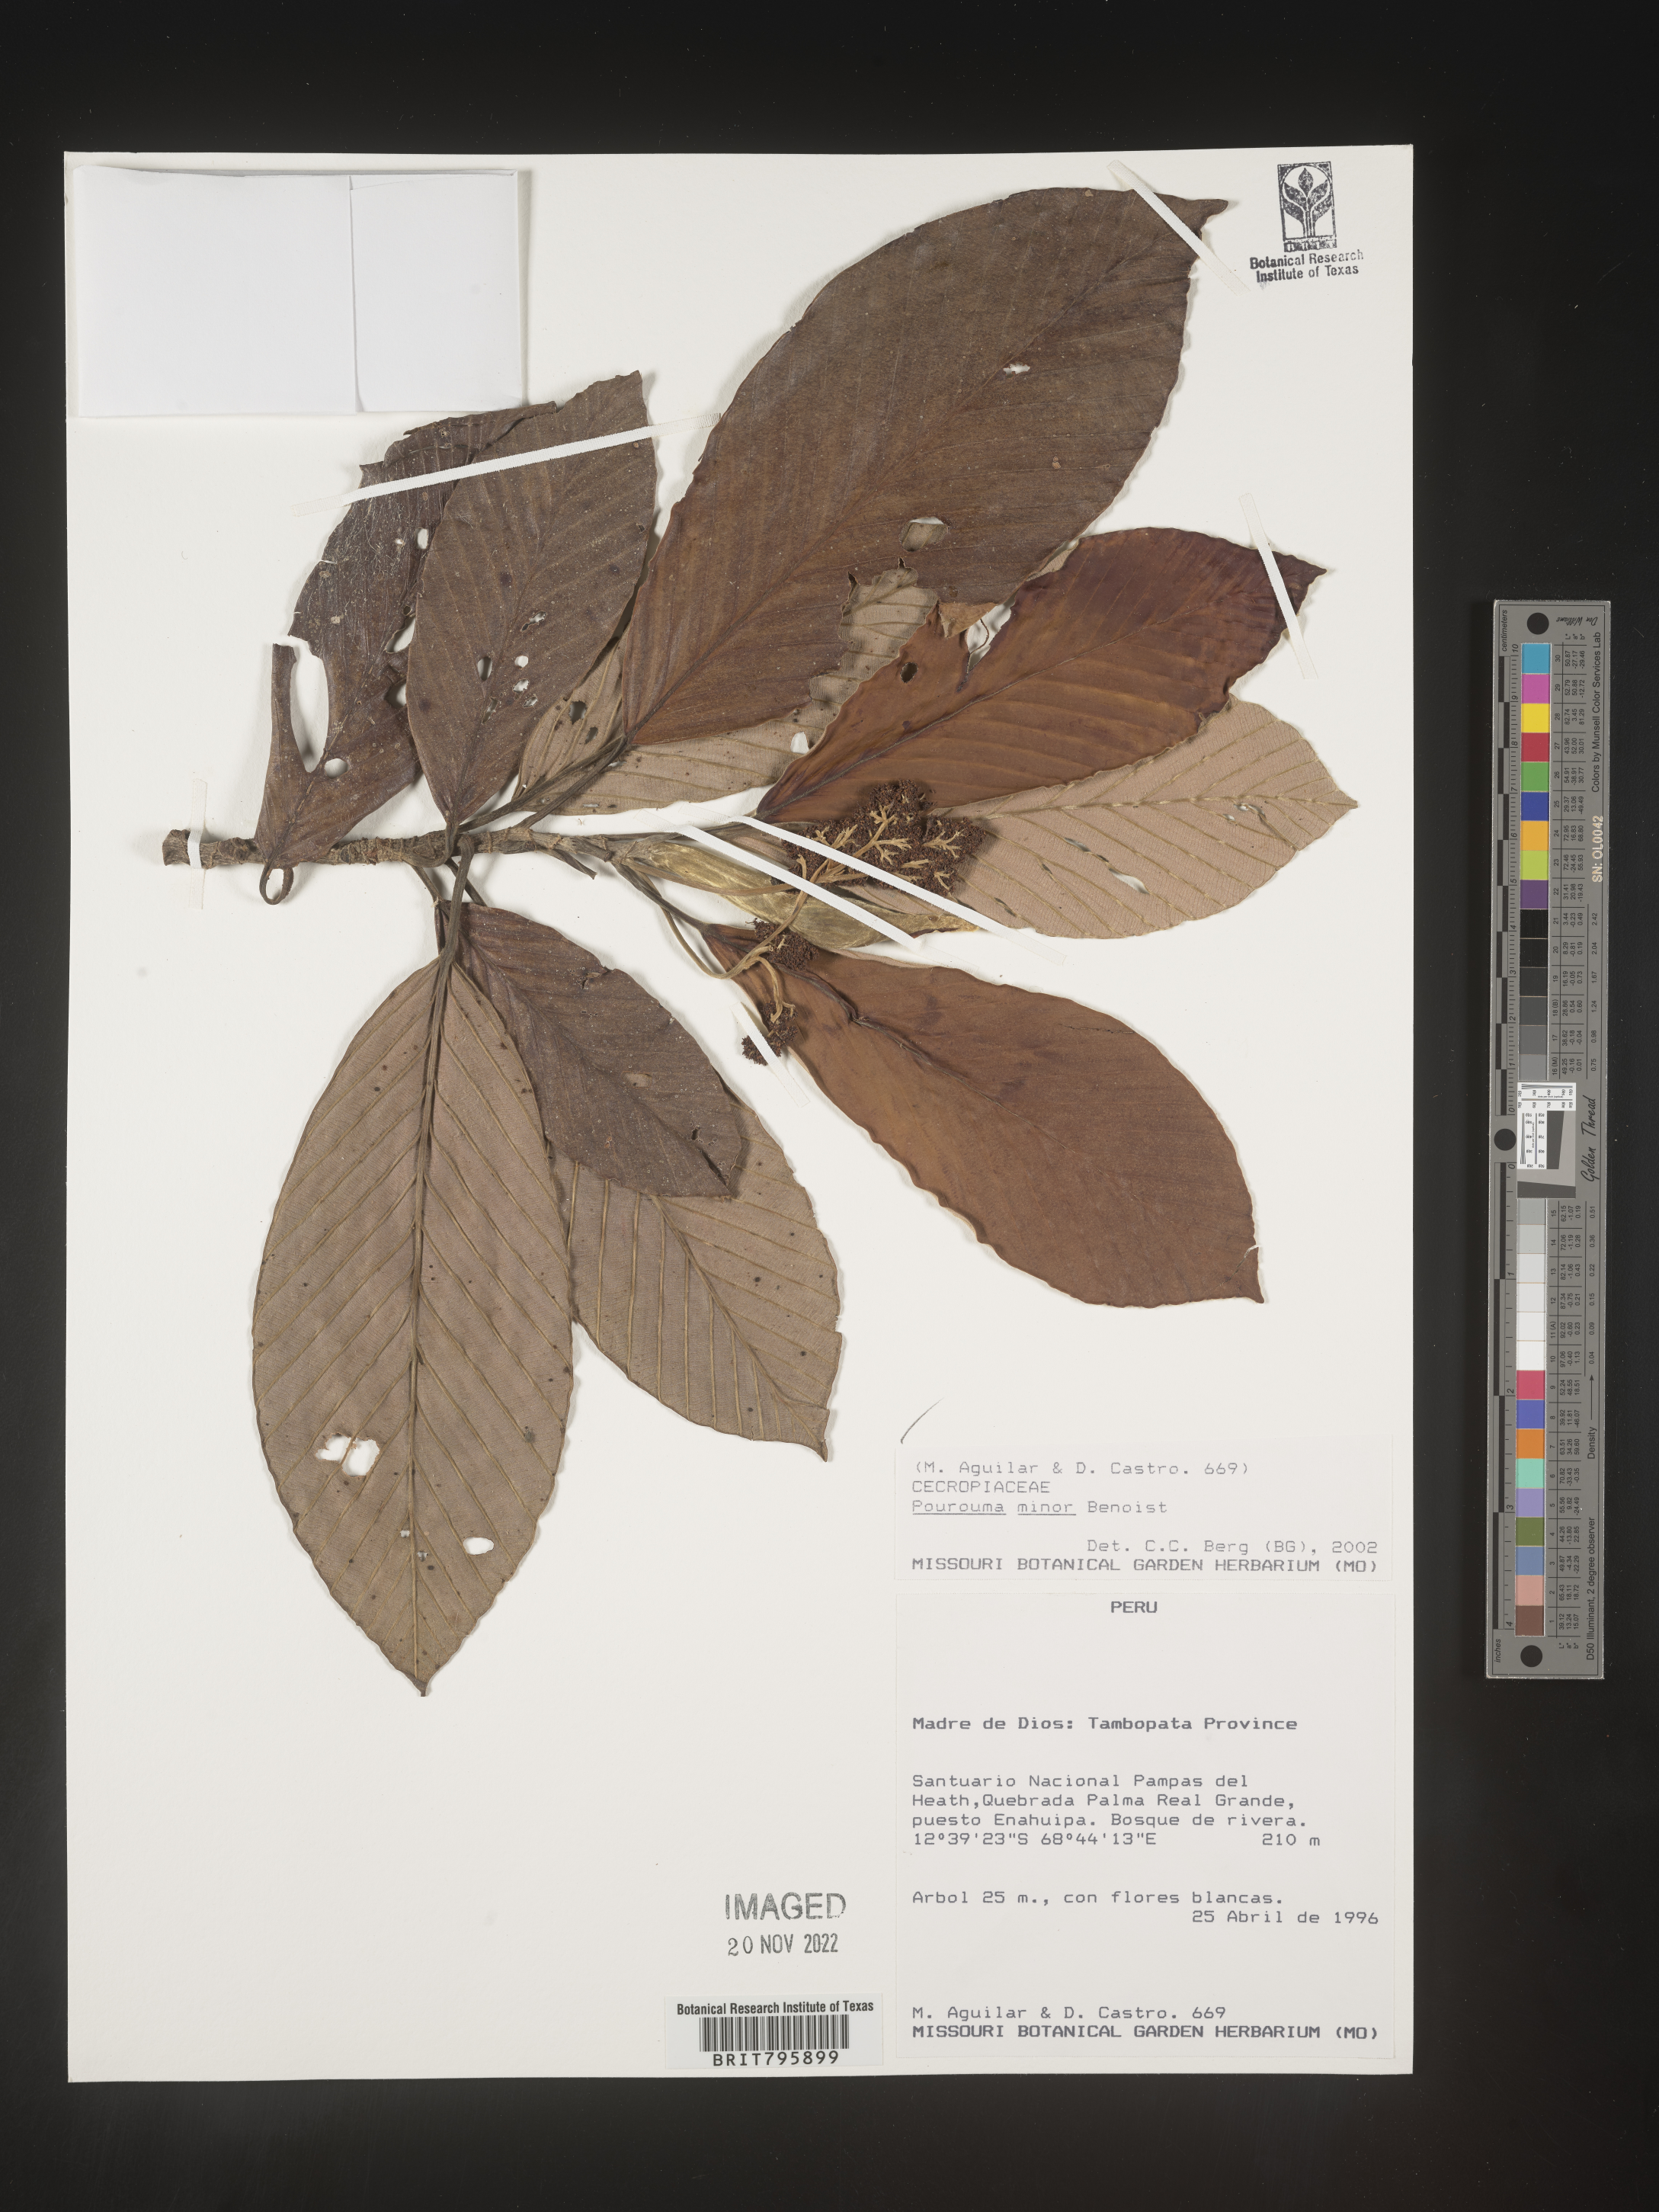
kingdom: Plantae
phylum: Tracheophyta
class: Magnoliopsida
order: Rosales
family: Urticaceae
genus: Pourouma
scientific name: Pourouma
